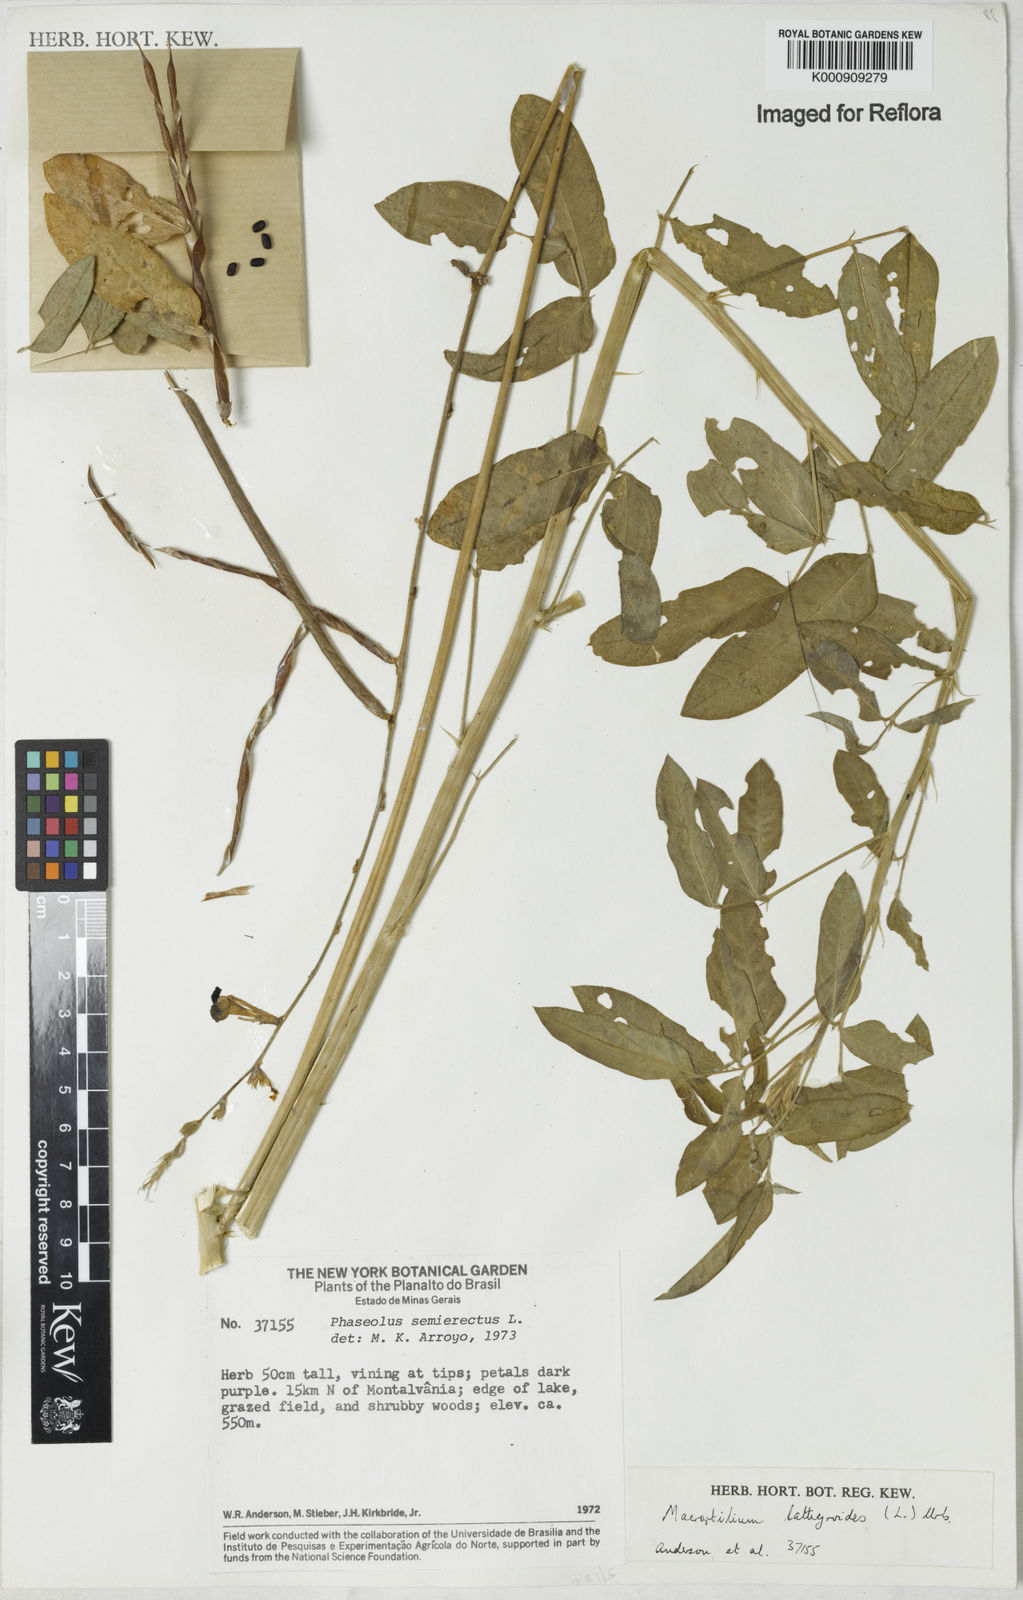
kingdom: Plantae
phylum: Tracheophyta
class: Magnoliopsida
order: Fabales
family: Fabaceae
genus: Macroptilium
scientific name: Macroptilium lathyroides
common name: Wild bushbean
